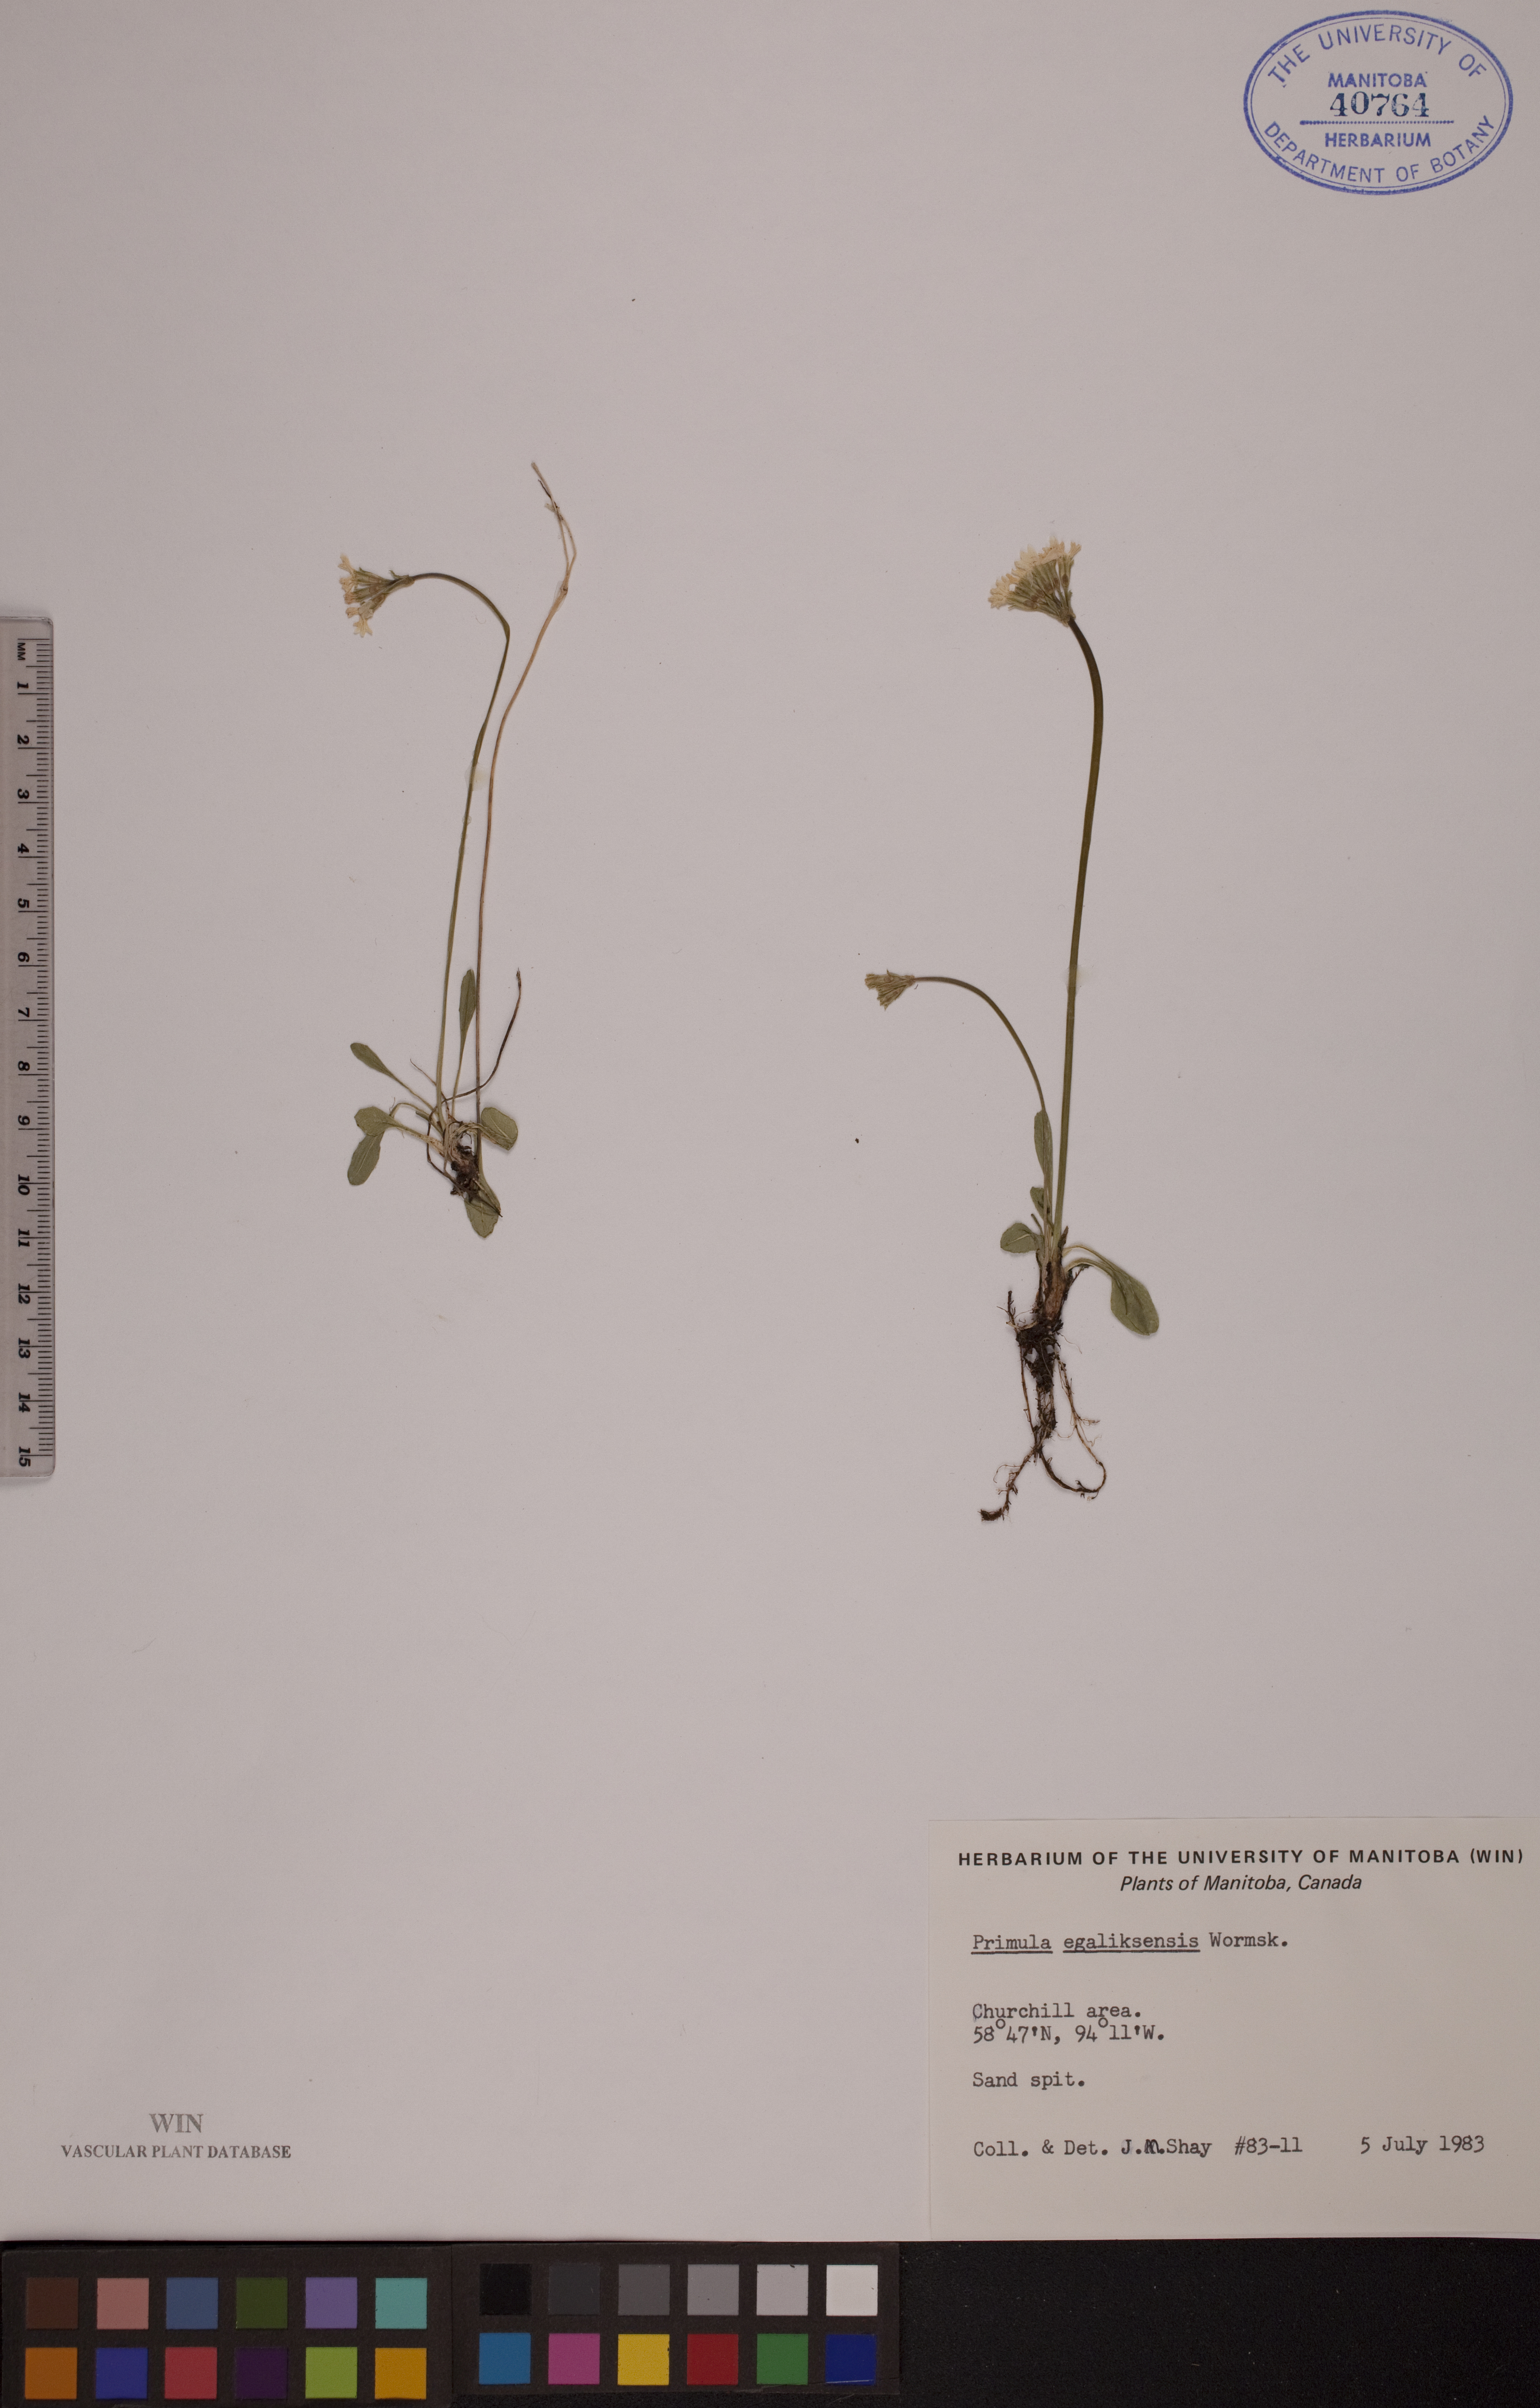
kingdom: Plantae
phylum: Tracheophyta
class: Magnoliopsida
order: Ericales
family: Primulaceae
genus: Primula
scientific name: Primula egaliksensis
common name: Greenland primrose
